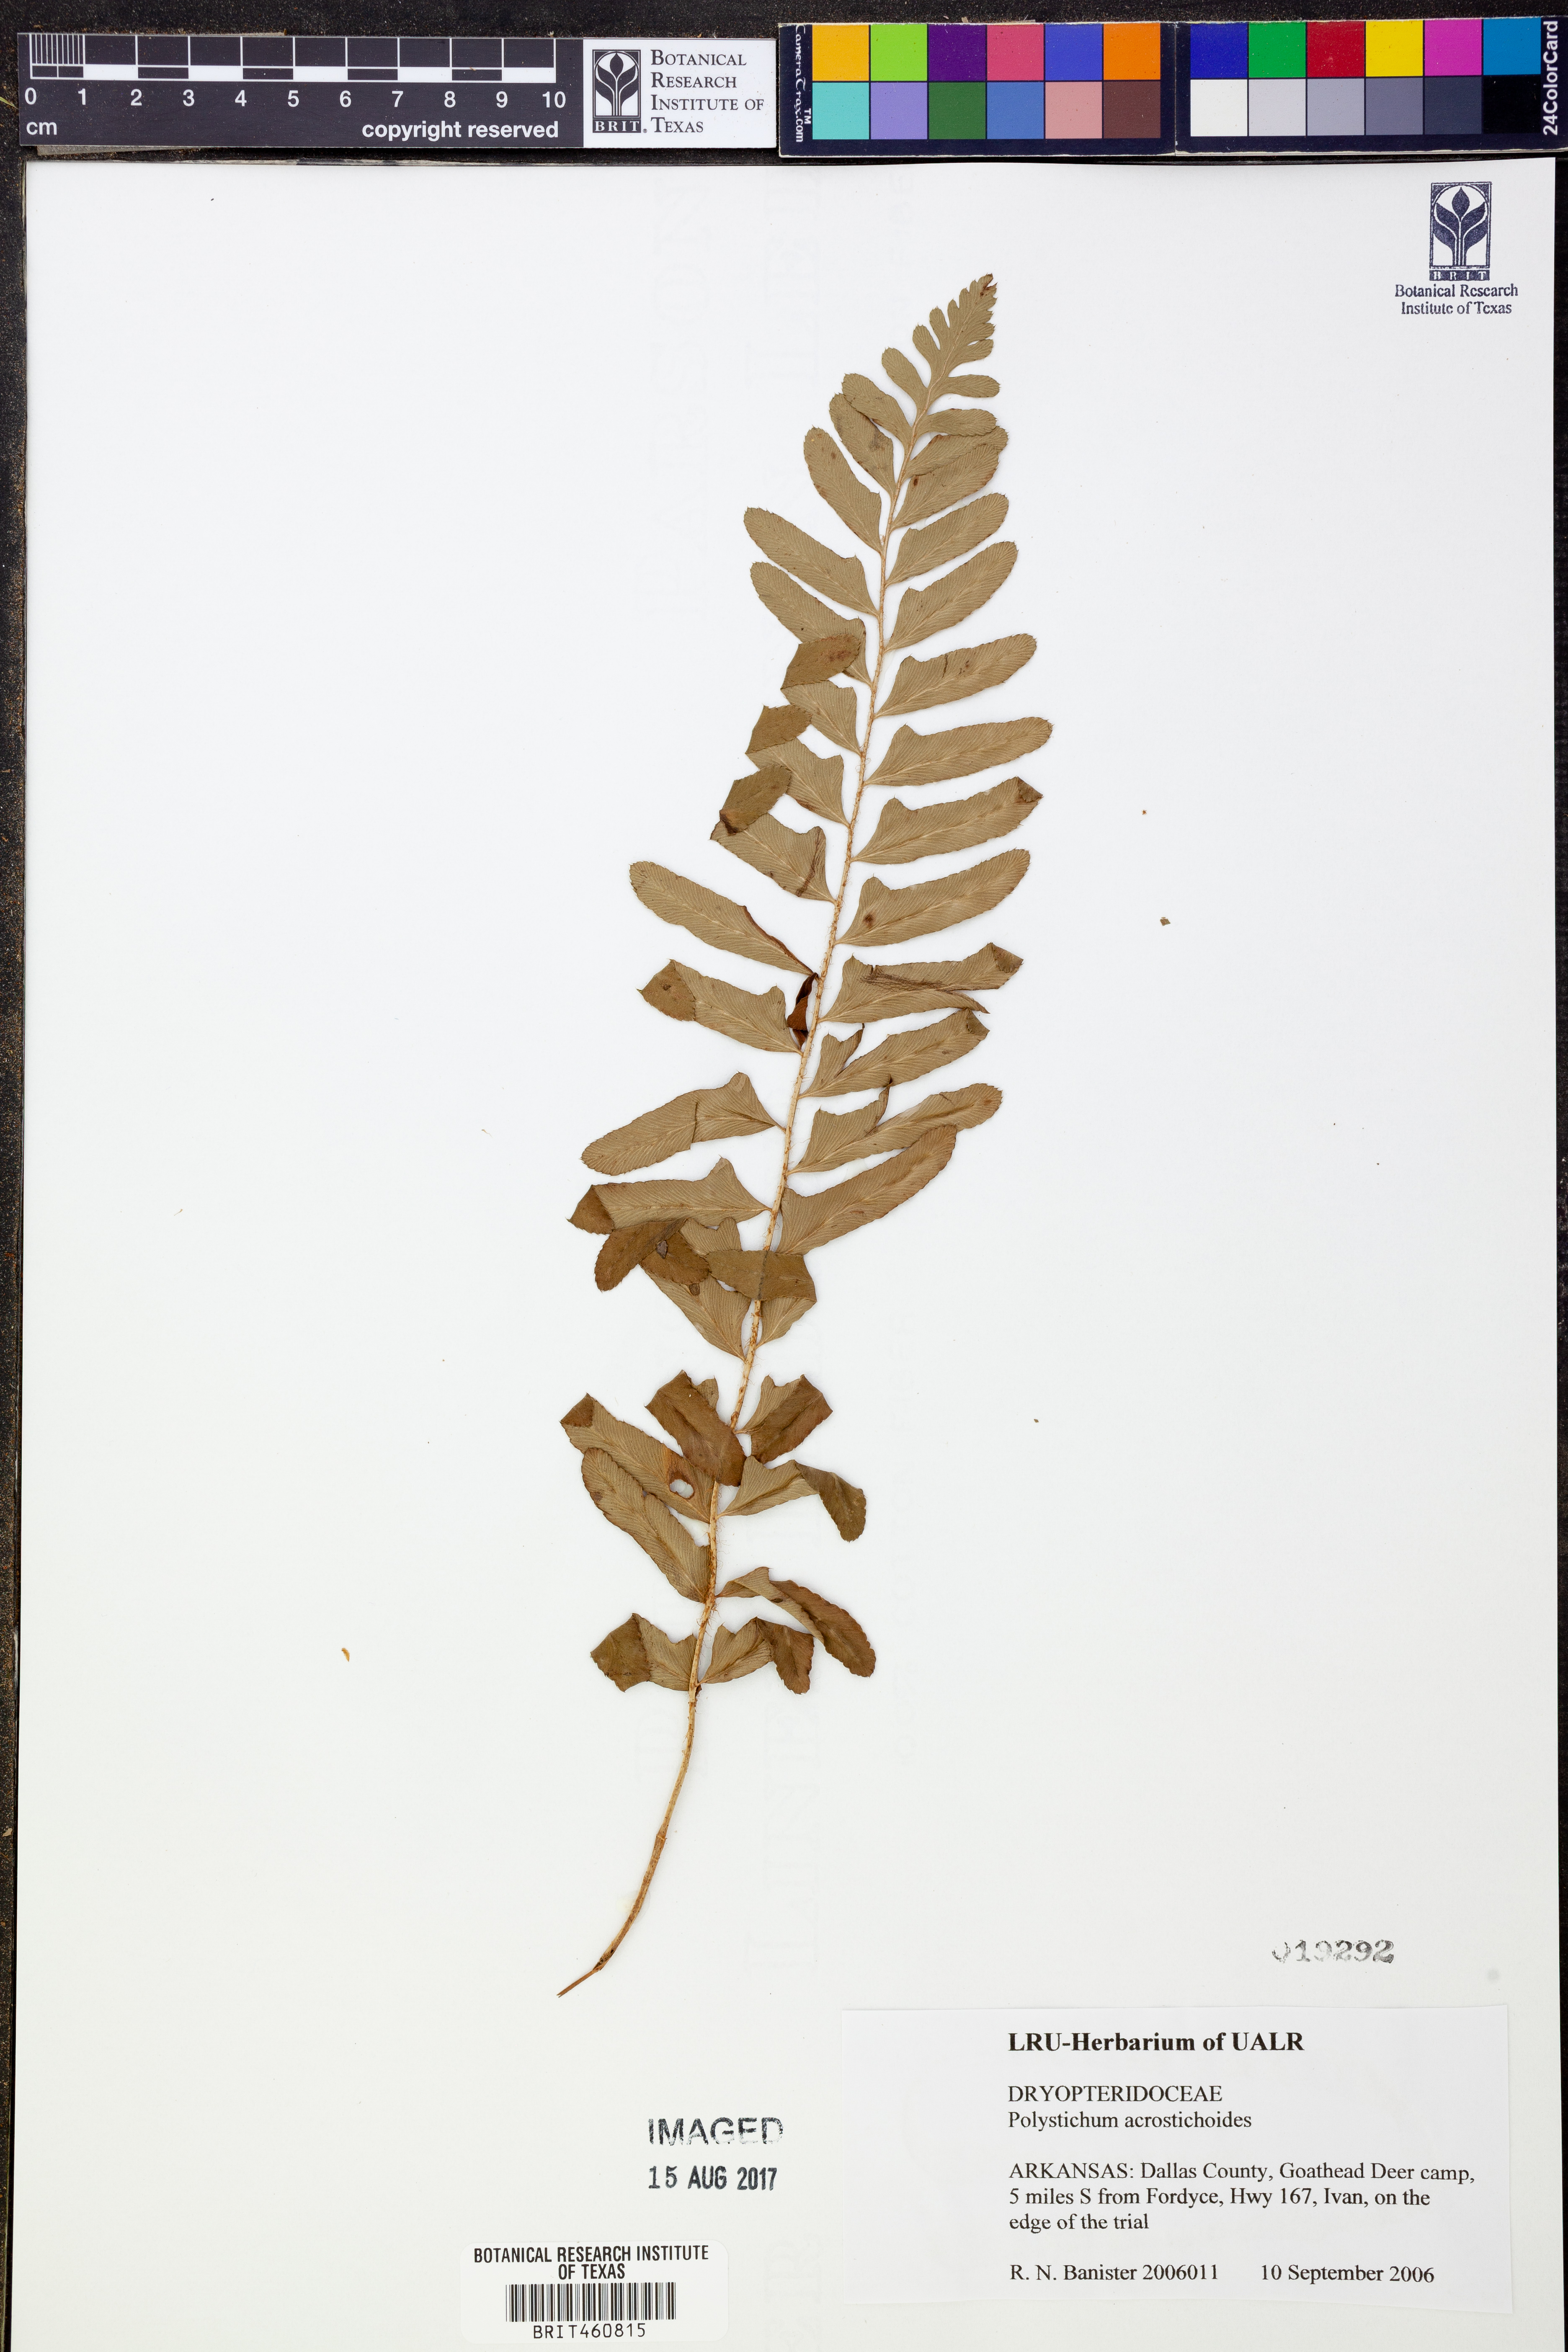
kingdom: Plantae
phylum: Tracheophyta
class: Polypodiopsida
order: Polypodiales
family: Dryopteridaceae
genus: Polystichum
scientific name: Polystichum acrostichoides
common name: Christmas fern
